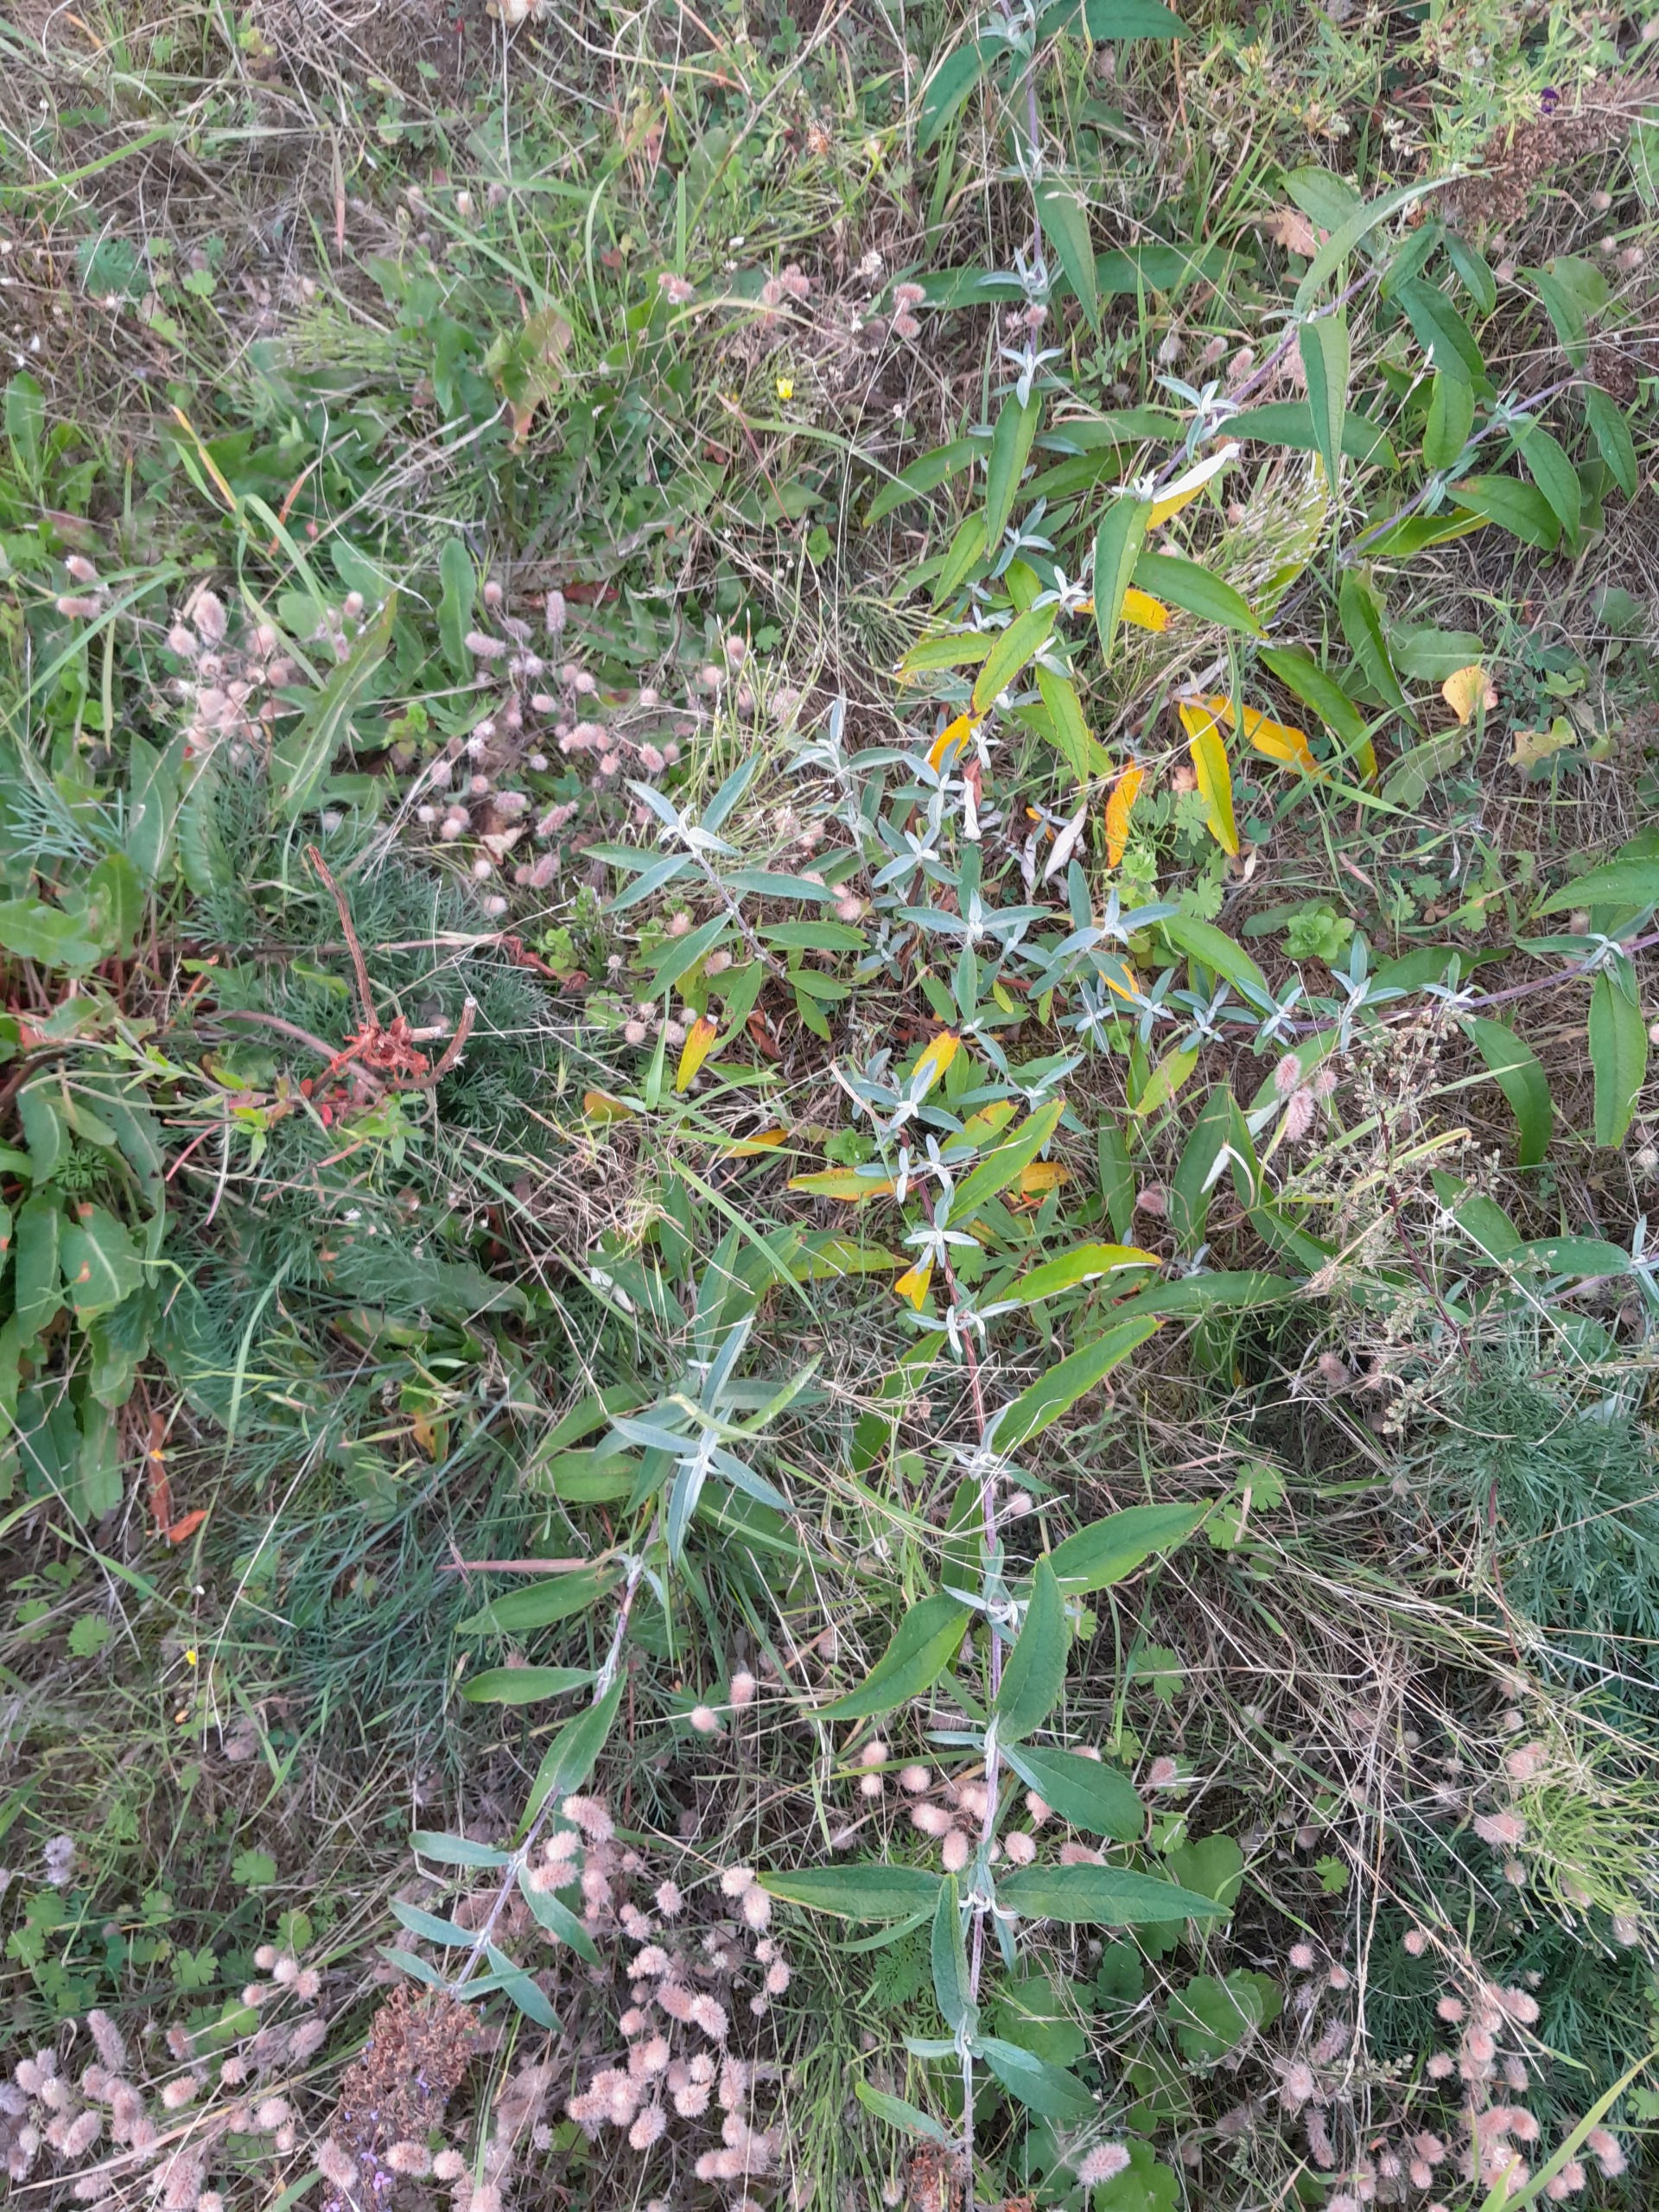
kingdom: Plantae
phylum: Tracheophyta
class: Magnoliopsida
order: Lamiales
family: Scrophulariaceae
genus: Buddleja
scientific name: Buddleja davidii
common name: Sommerfuglebusk
